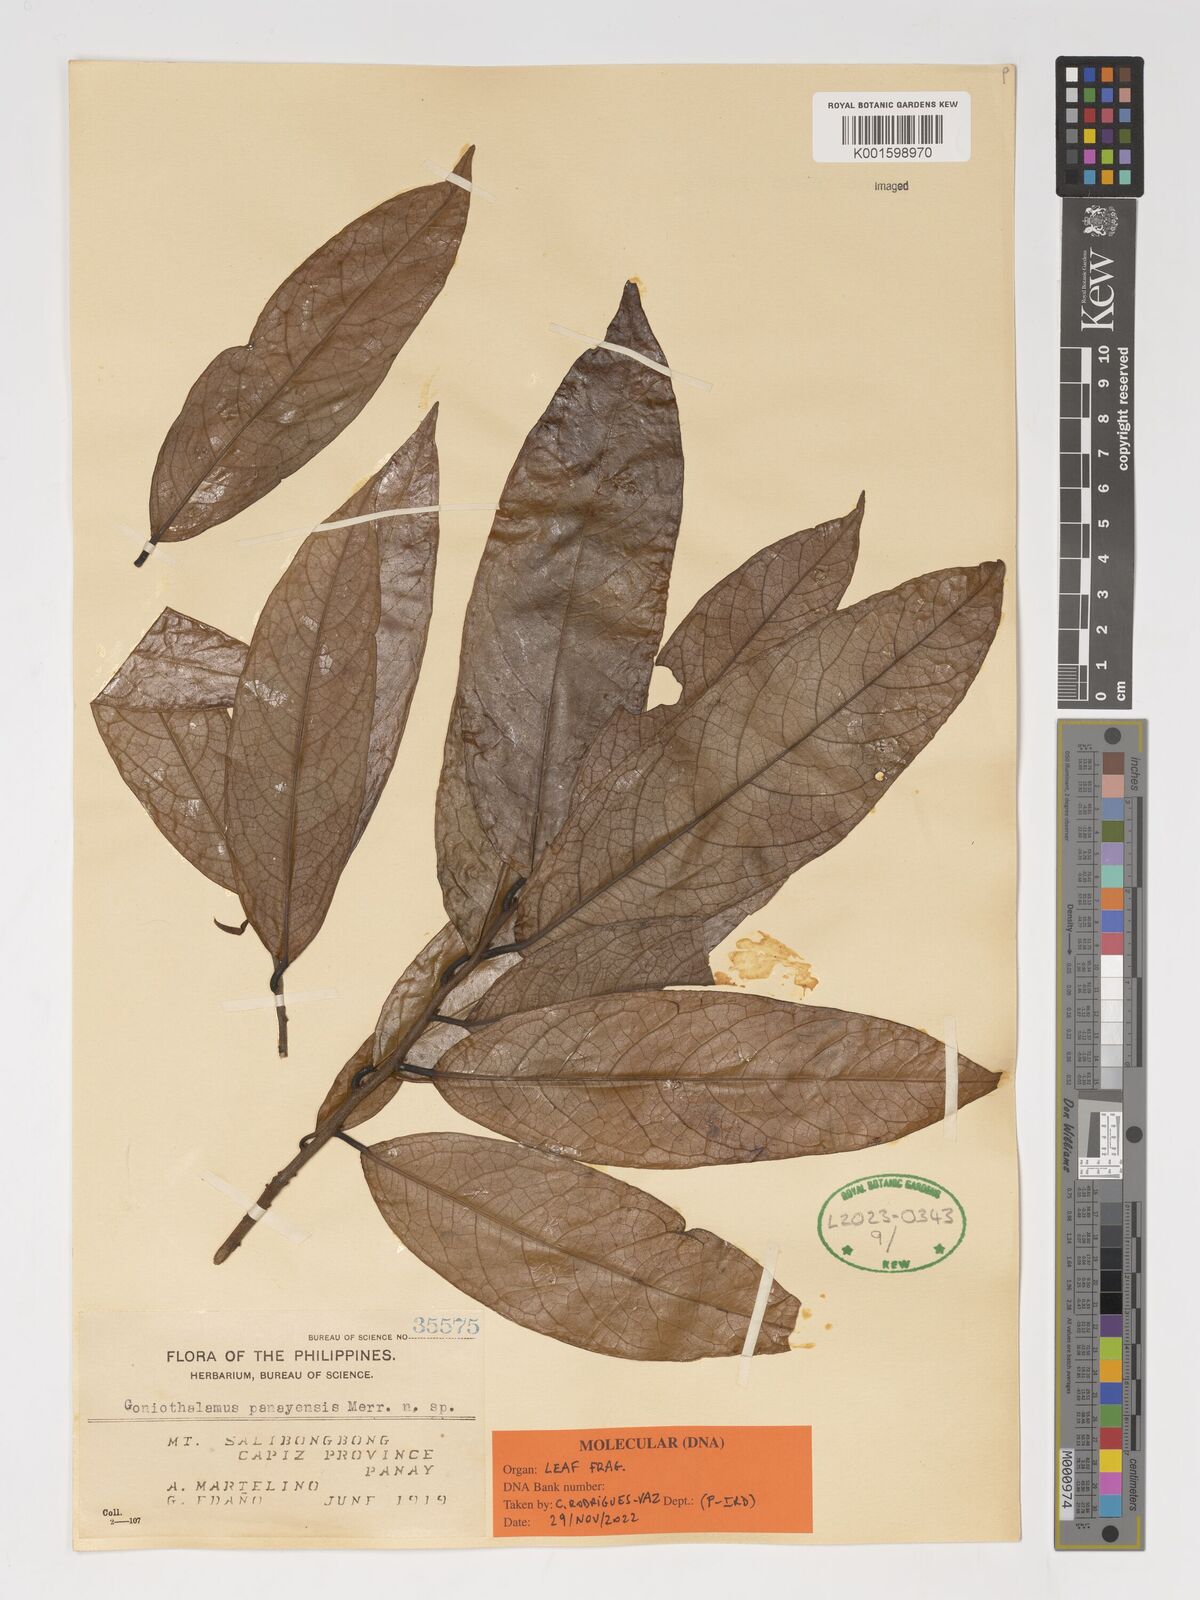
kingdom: Plantae
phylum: Tracheophyta
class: Magnoliopsida
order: Magnoliales
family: Annonaceae
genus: Goniothalamus
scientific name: Goniothalamus panayensis
